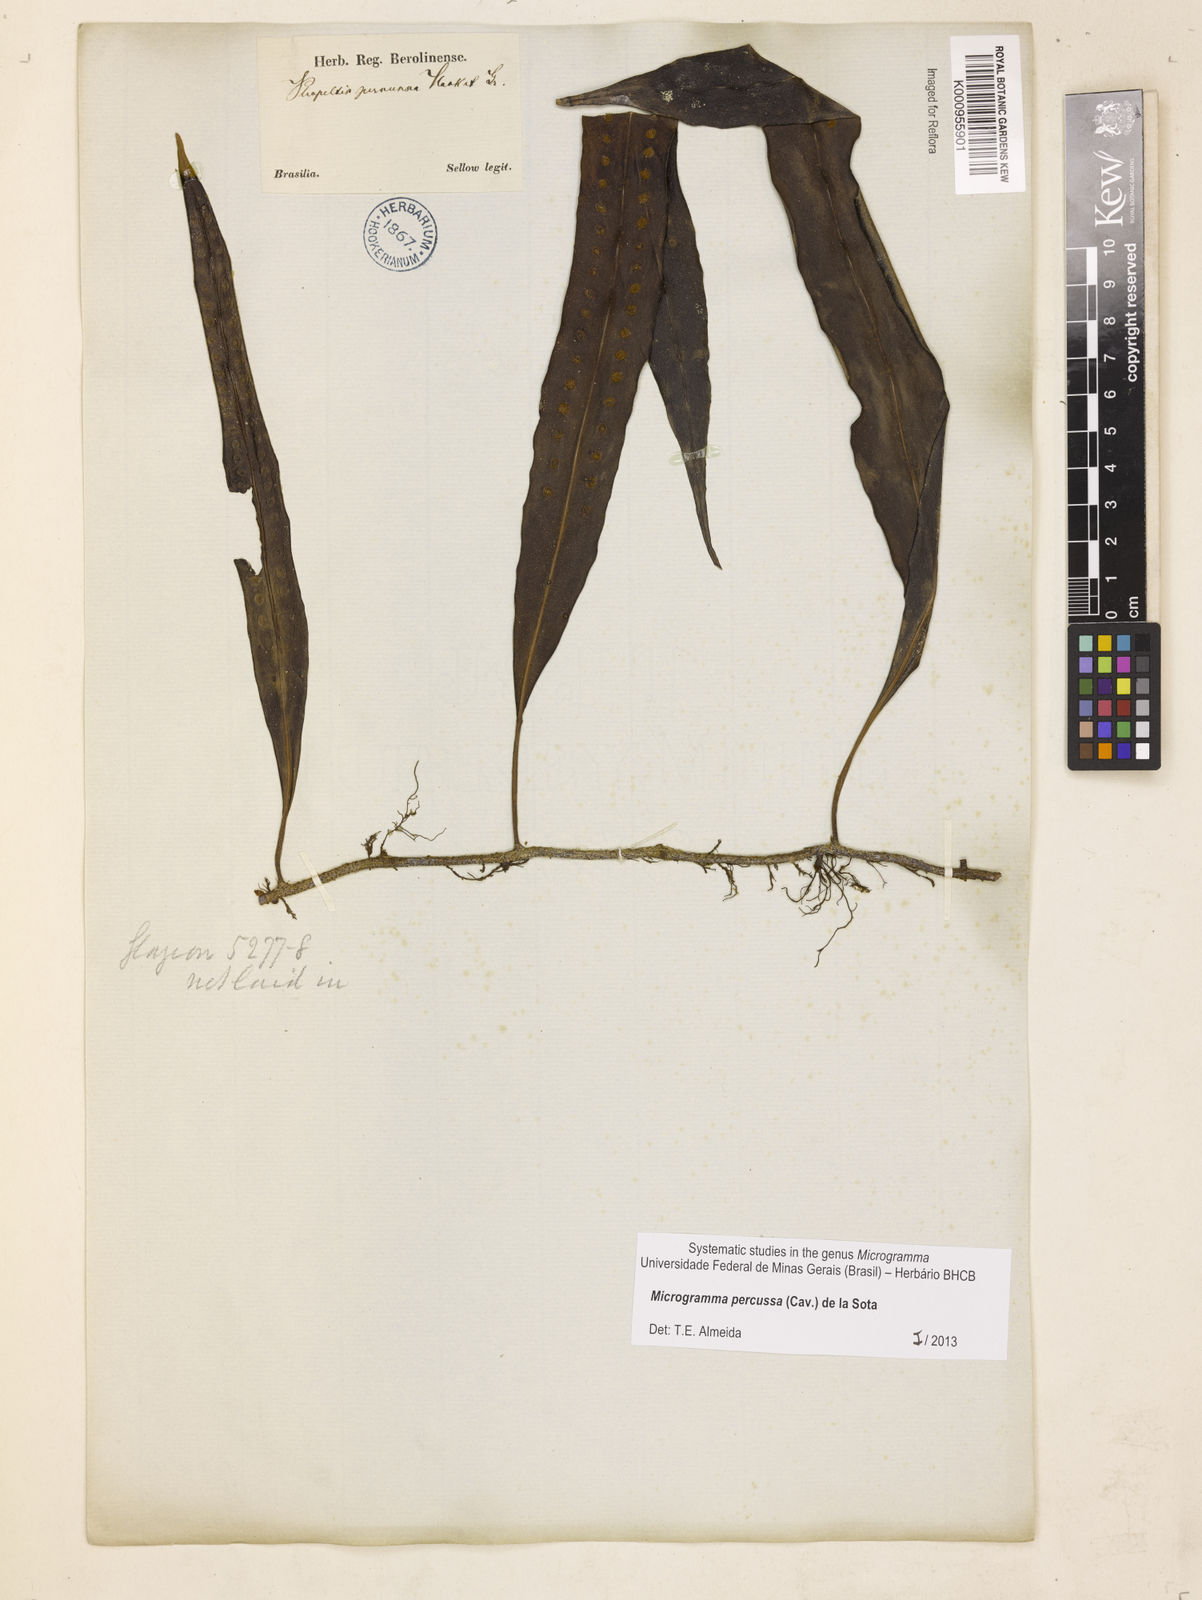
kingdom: Plantae
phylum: Tracheophyta
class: Polypodiopsida
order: Polypodiales
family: Polypodiaceae
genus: Microgramma
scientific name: Microgramma percussa
